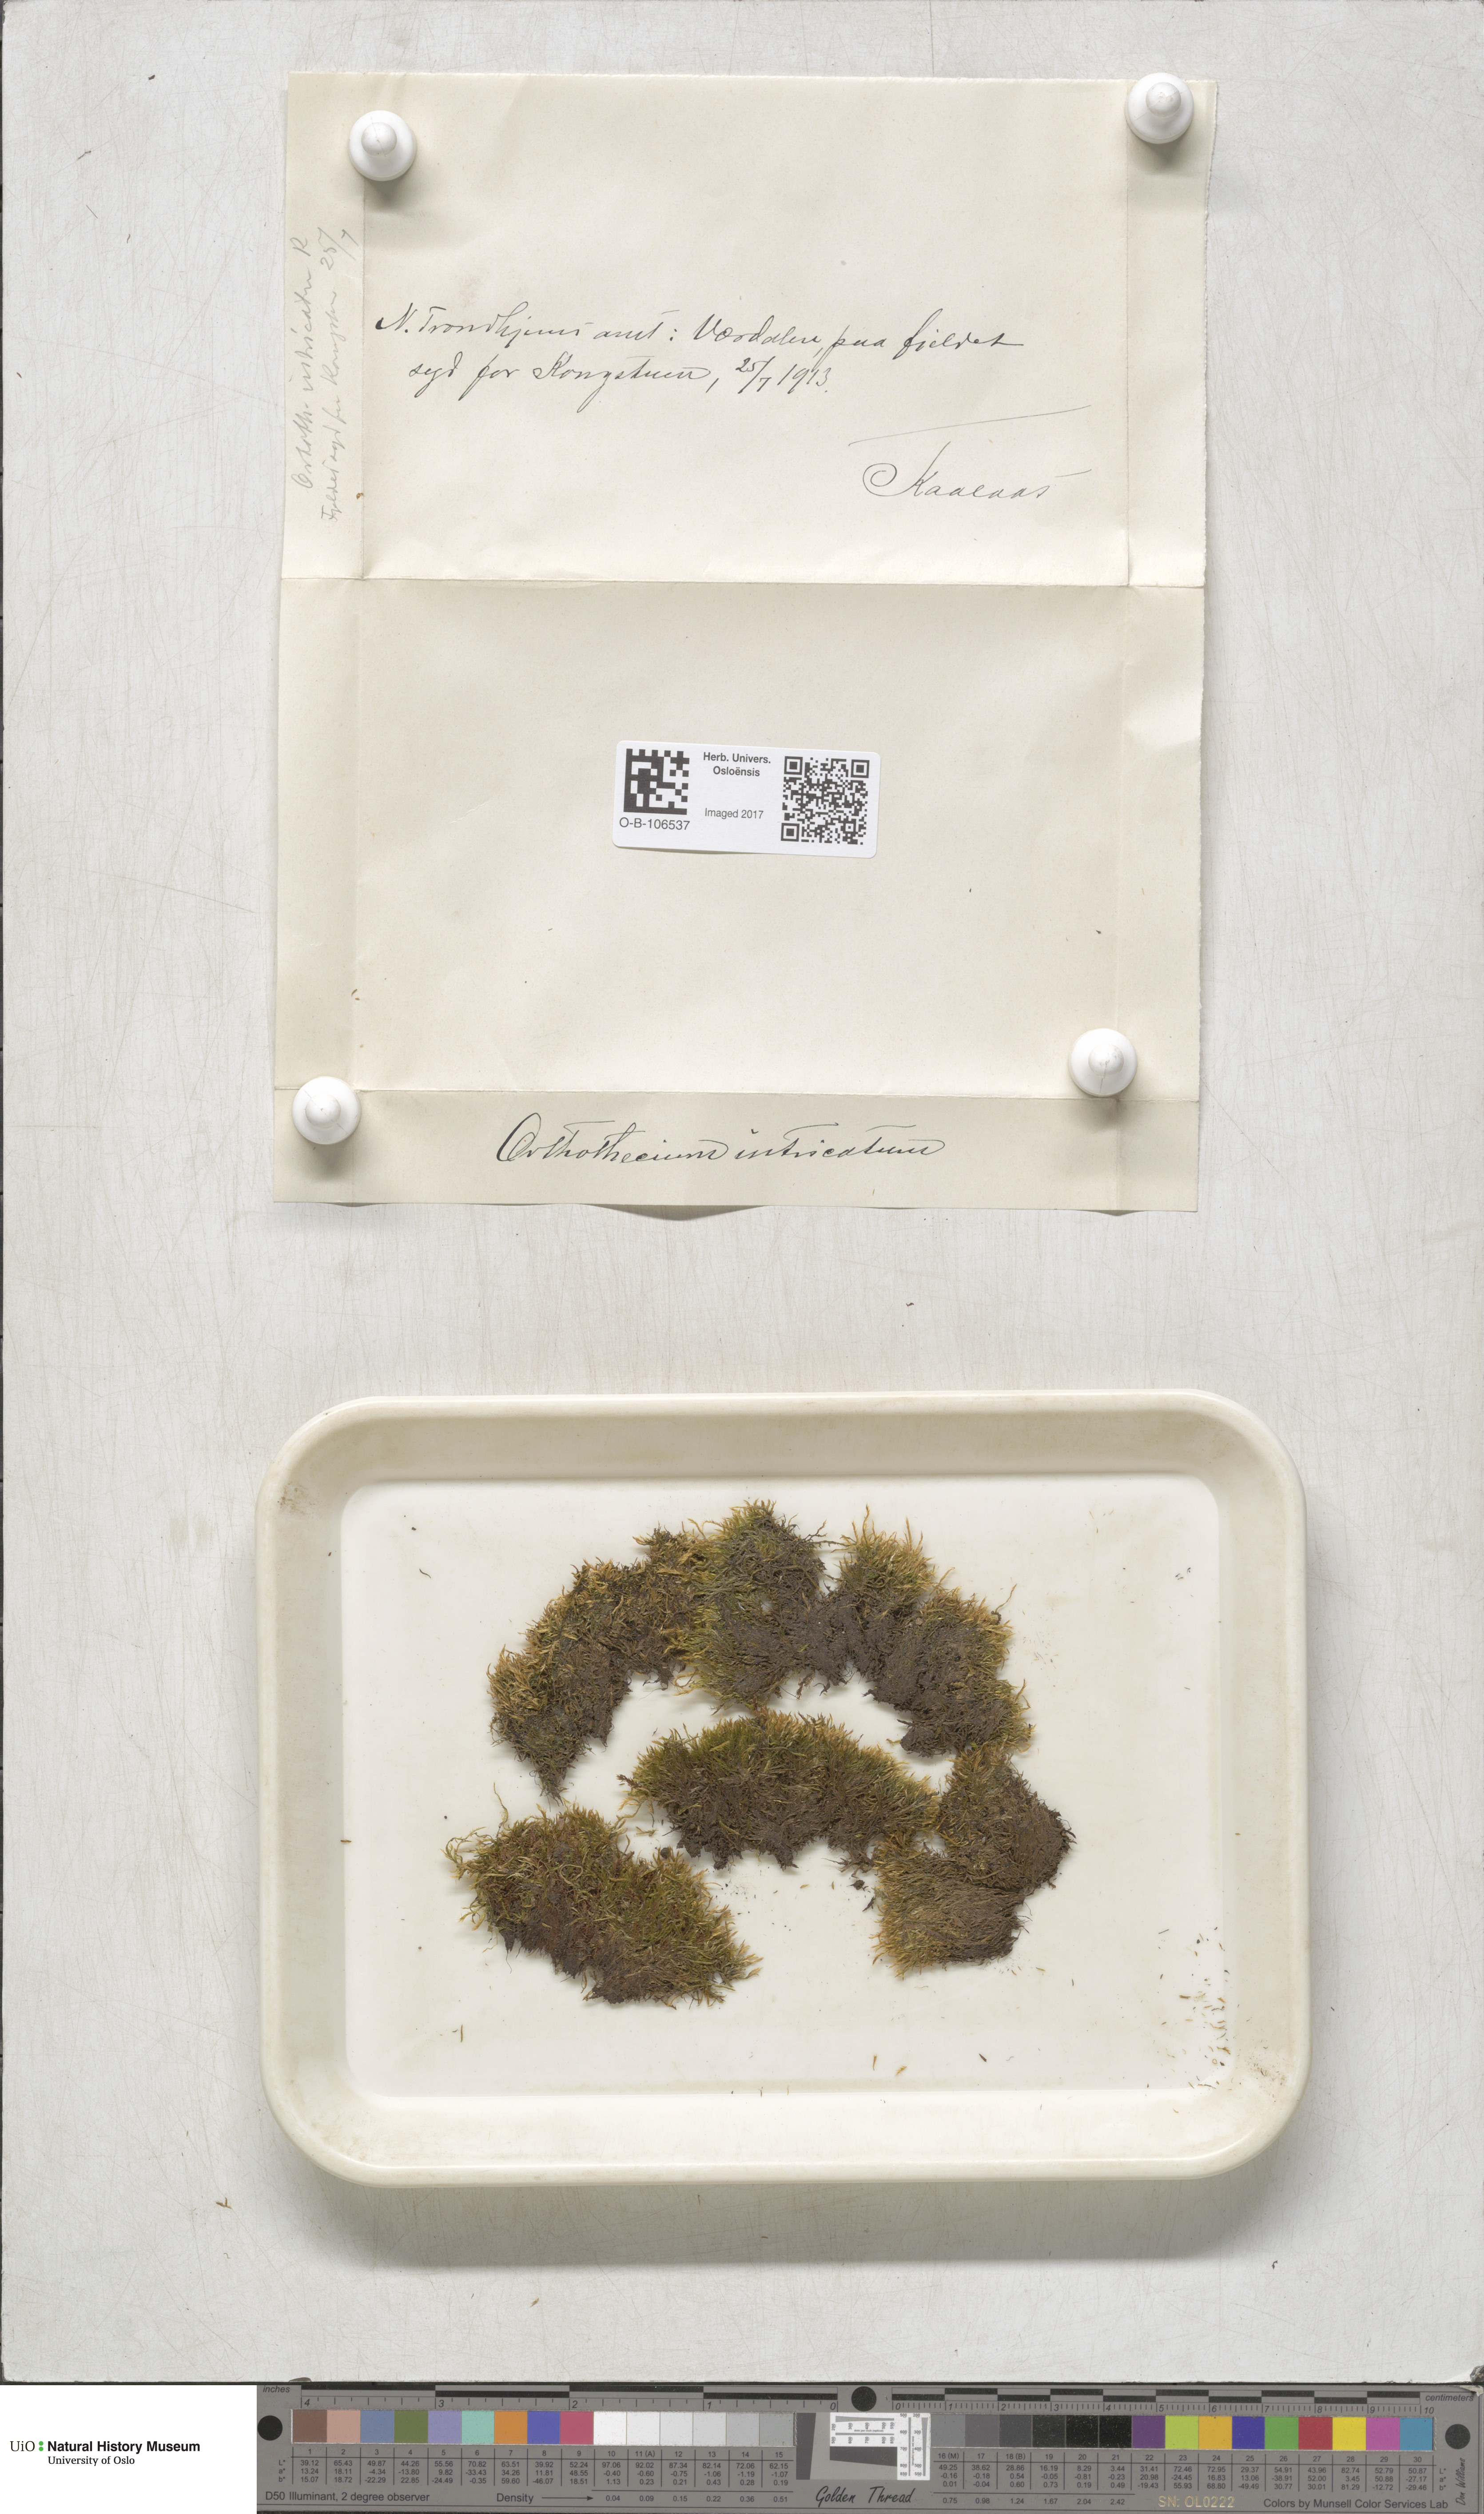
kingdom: Plantae
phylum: Bryophyta
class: Bryopsida
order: Hypnales
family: Plagiotheciaceae
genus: Orthothecium
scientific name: Orthothecium intricatum
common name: Fine-leaved erect-capsule moss
